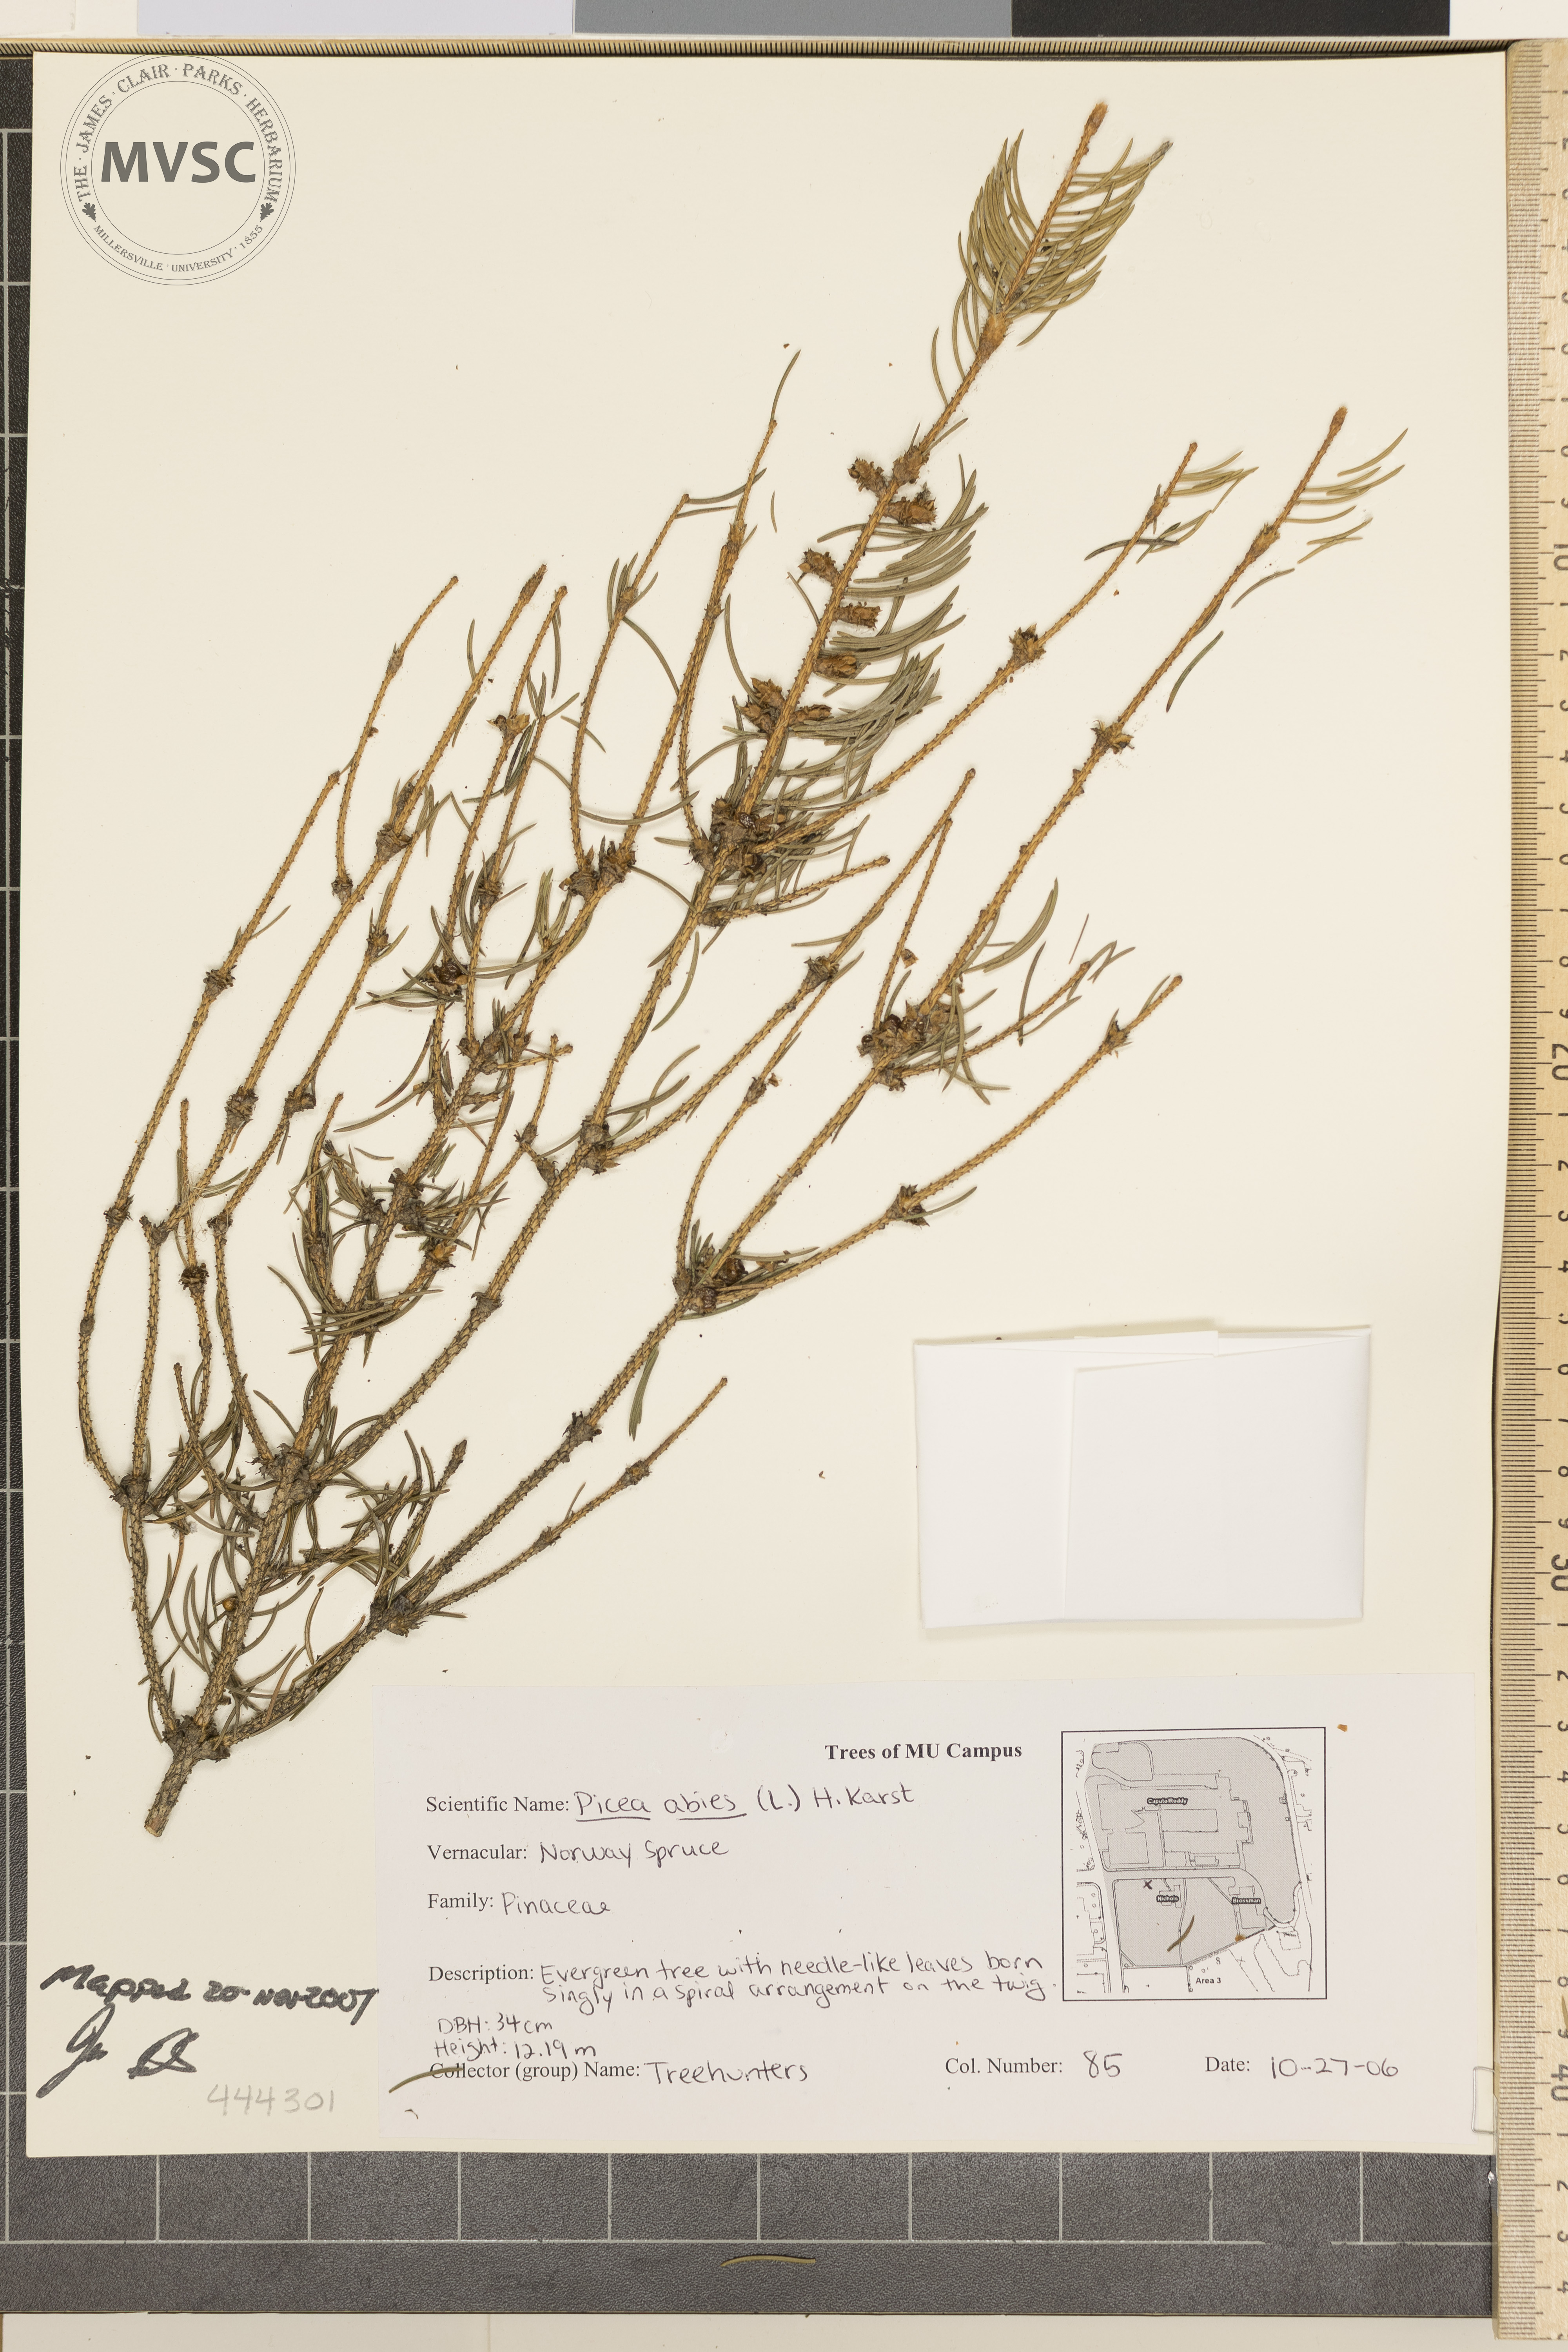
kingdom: Plantae
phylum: Tracheophyta
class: Pinopsida
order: Pinales
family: Pinaceae
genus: Picea
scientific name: Picea abies
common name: Norway Spruce
